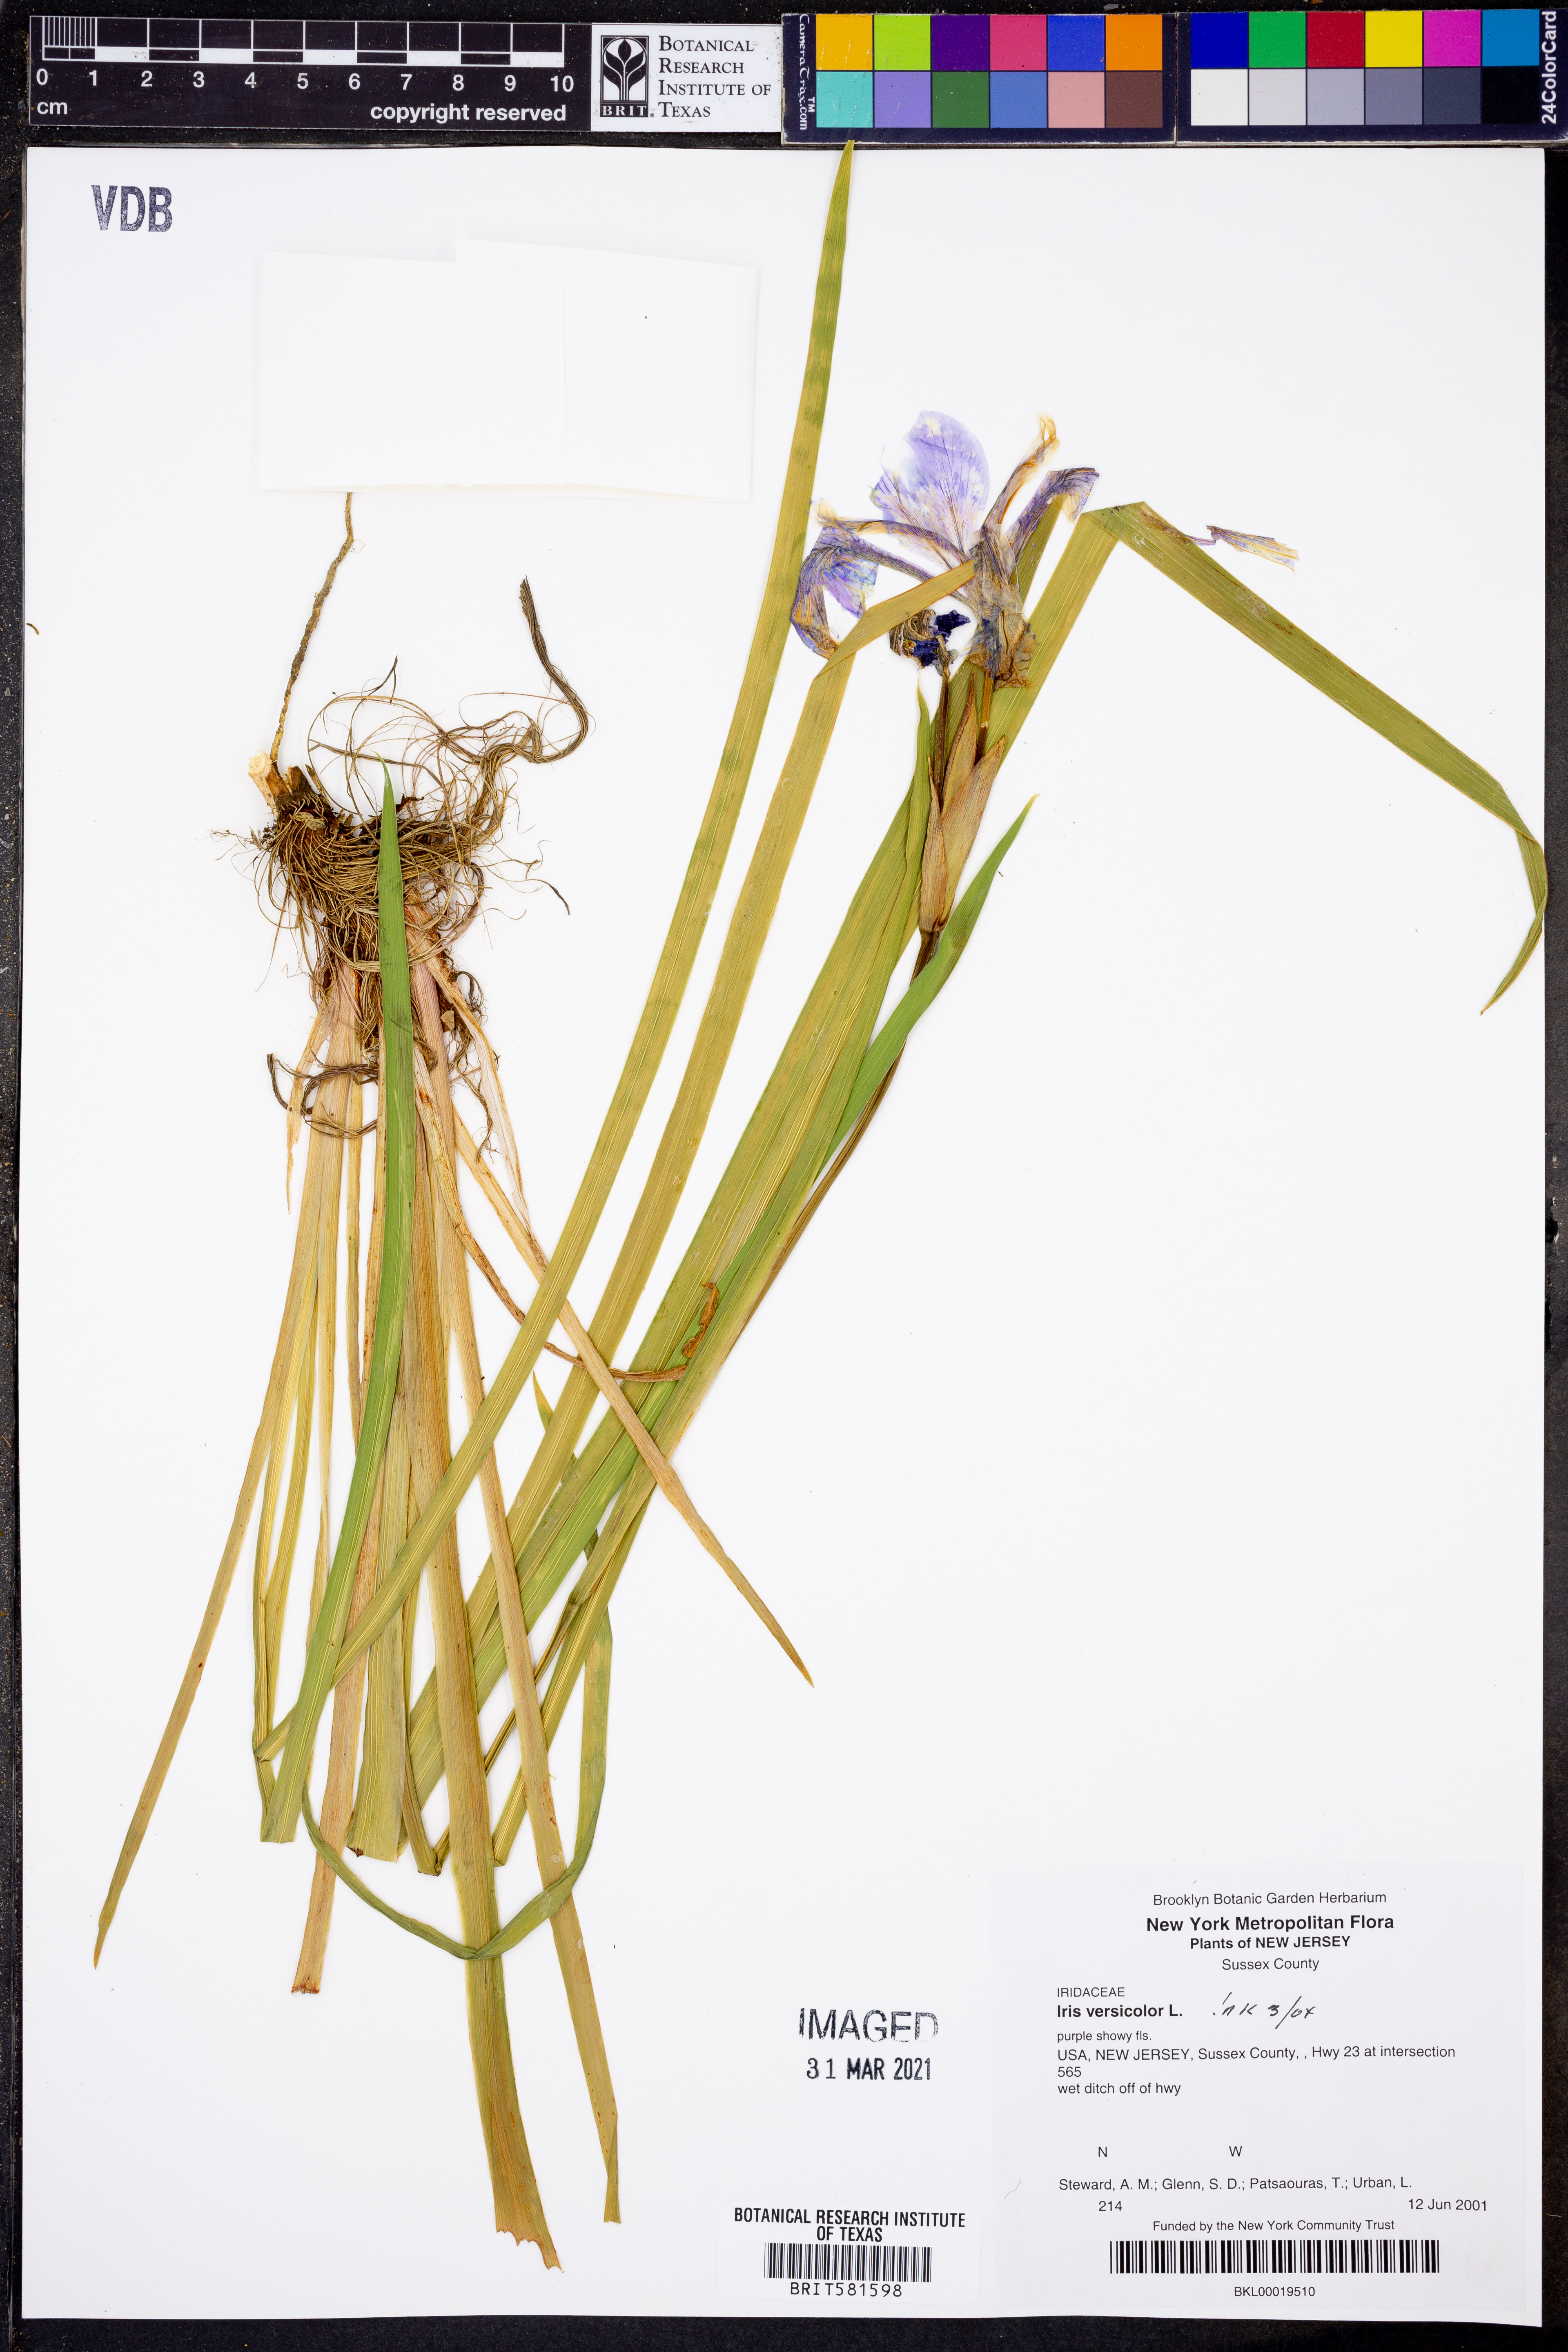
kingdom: Plantae
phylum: Tracheophyta
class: Liliopsida
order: Asparagales
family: Iridaceae
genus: Iris
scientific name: Iris versicolor
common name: Purple iris
